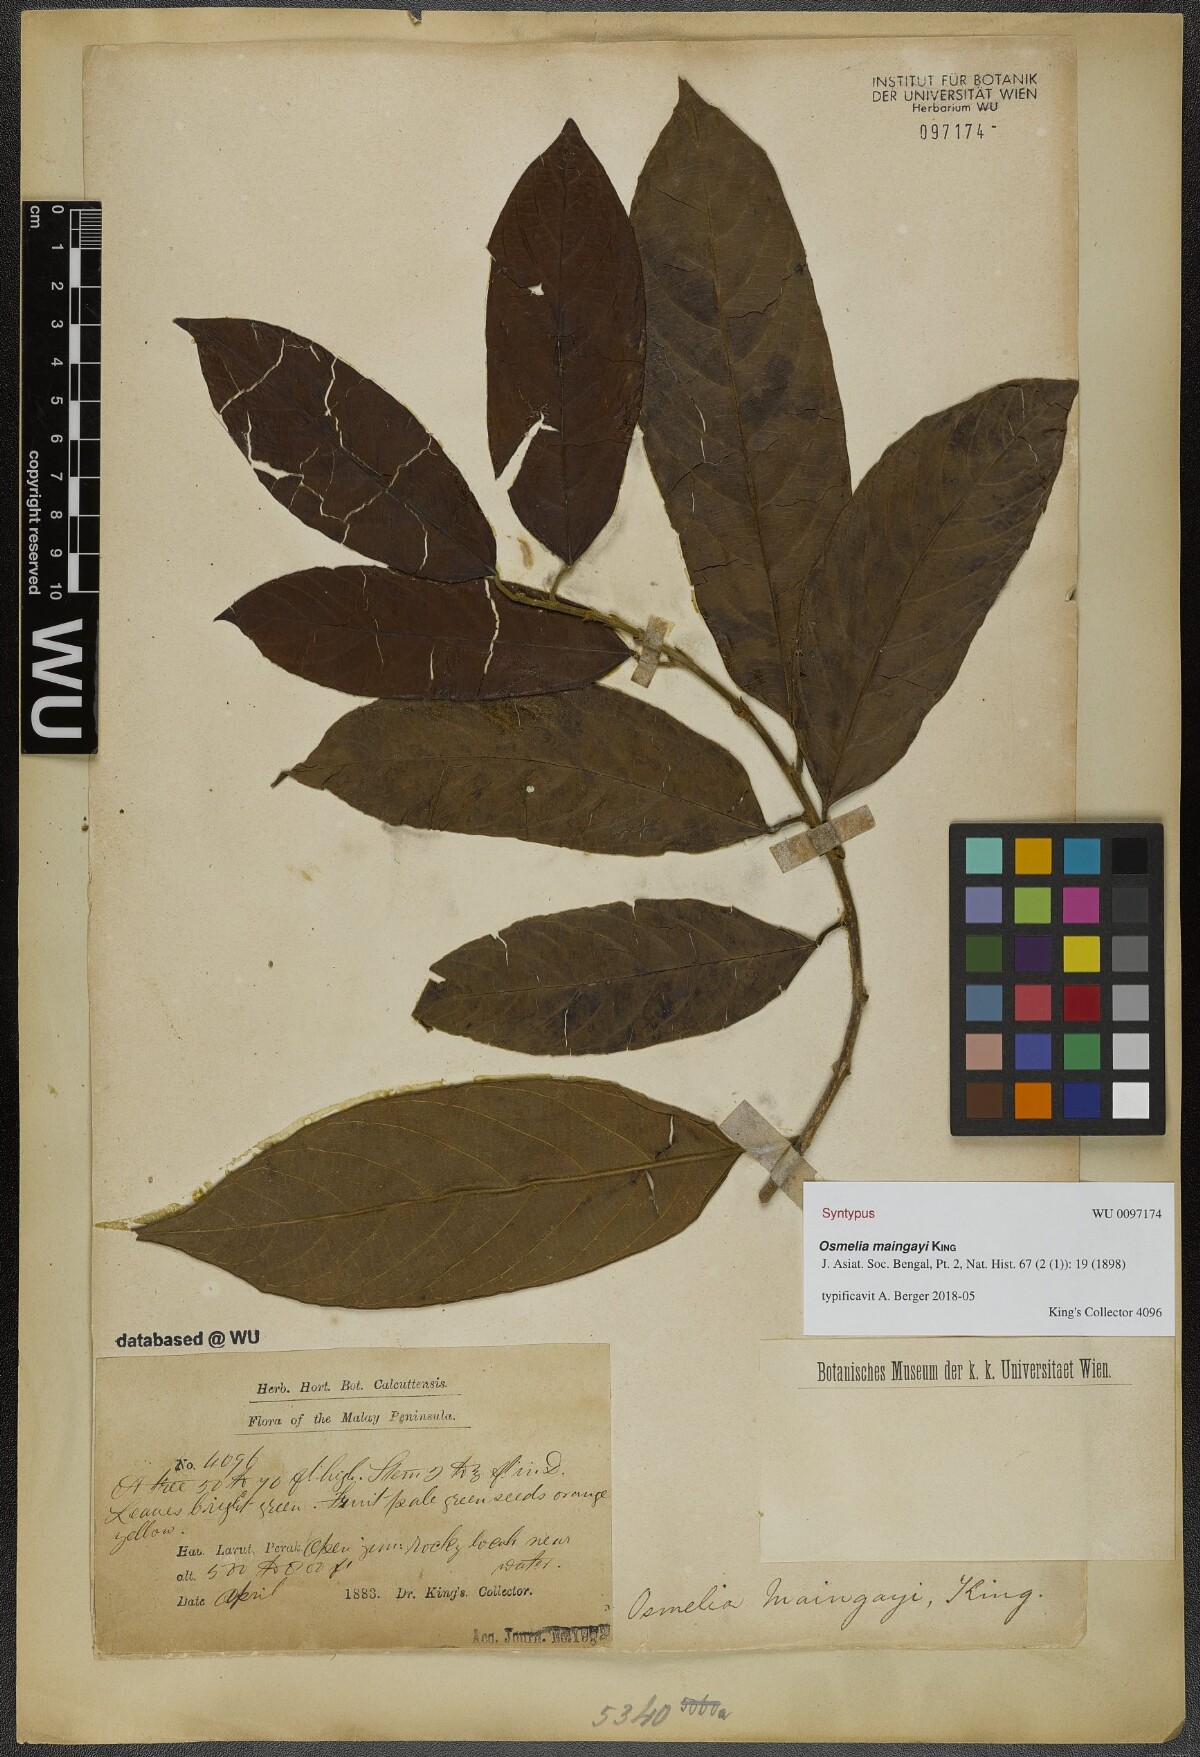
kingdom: Plantae
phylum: Tracheophyta
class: Magnoliopsida
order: Malpighiales
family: Salicaceae
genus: Osmelia
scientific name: Osmelia maingayi
